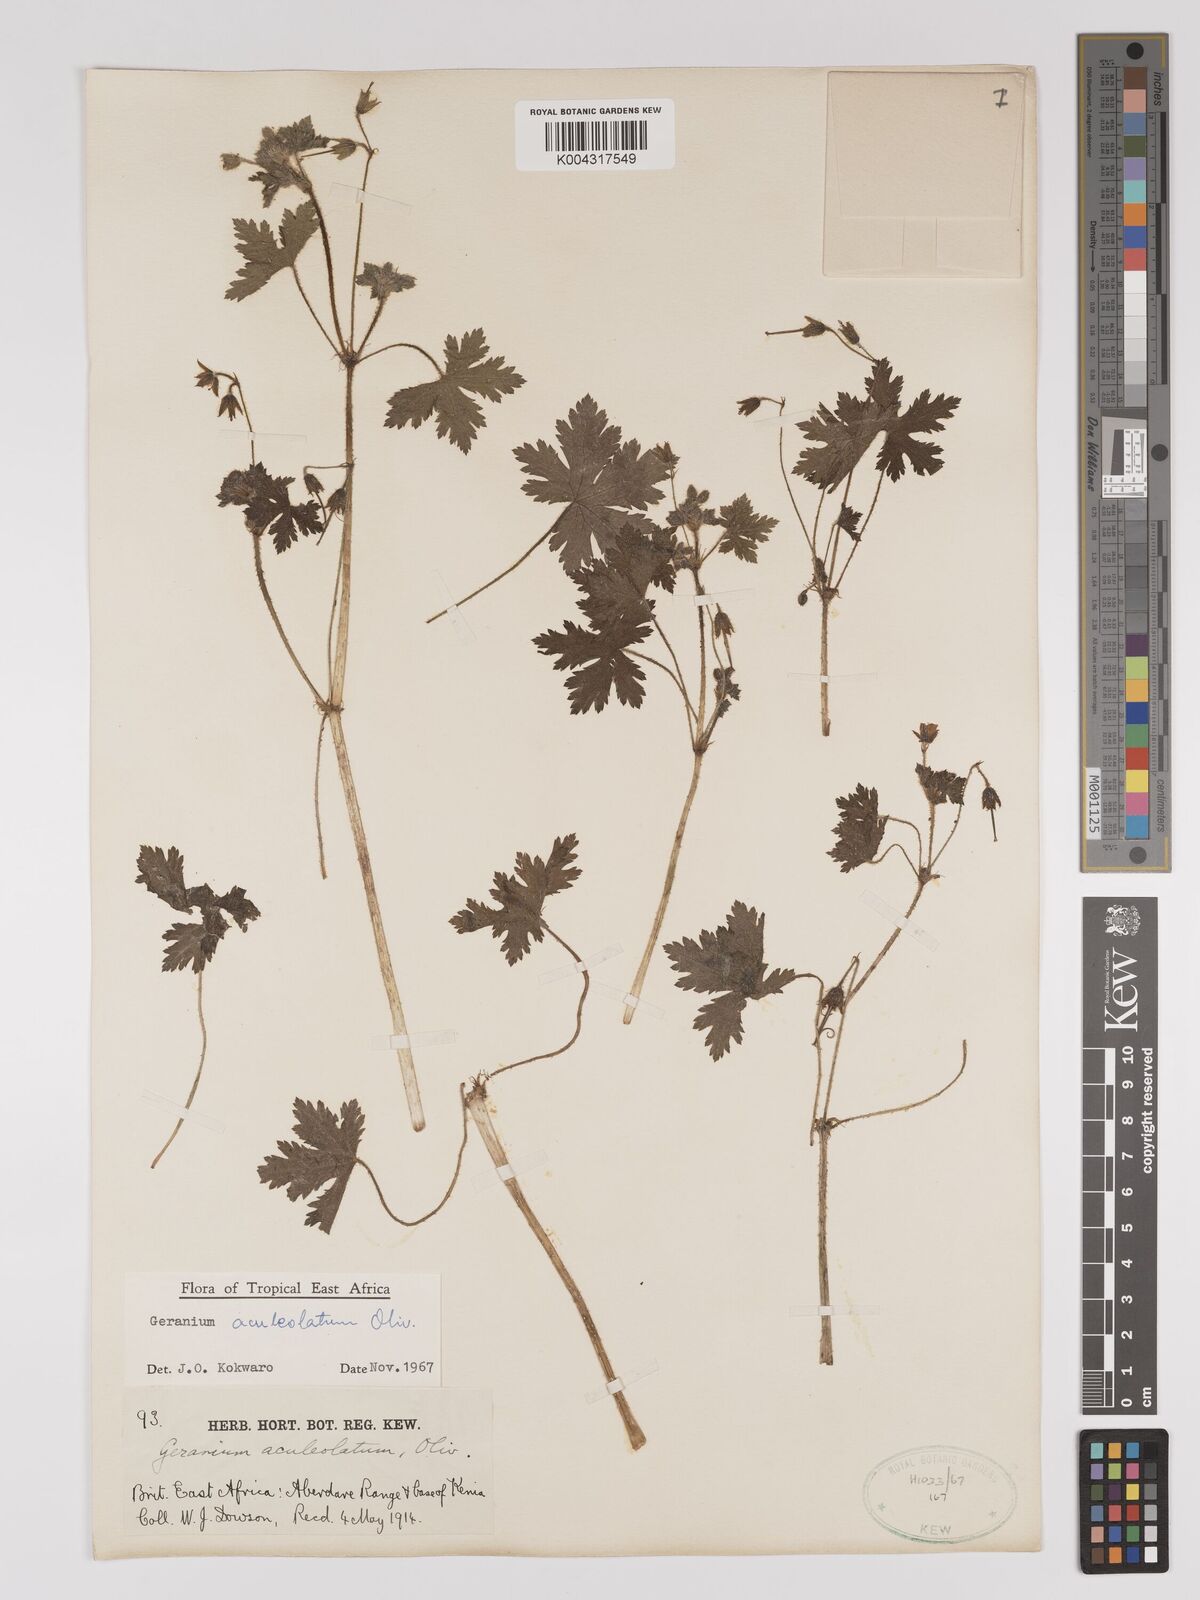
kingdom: Plantae
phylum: Tracheophyta
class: Magnoliopsida
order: Geraniales
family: Geraniaceae
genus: Geranium
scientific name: Geranium aculeolatum
